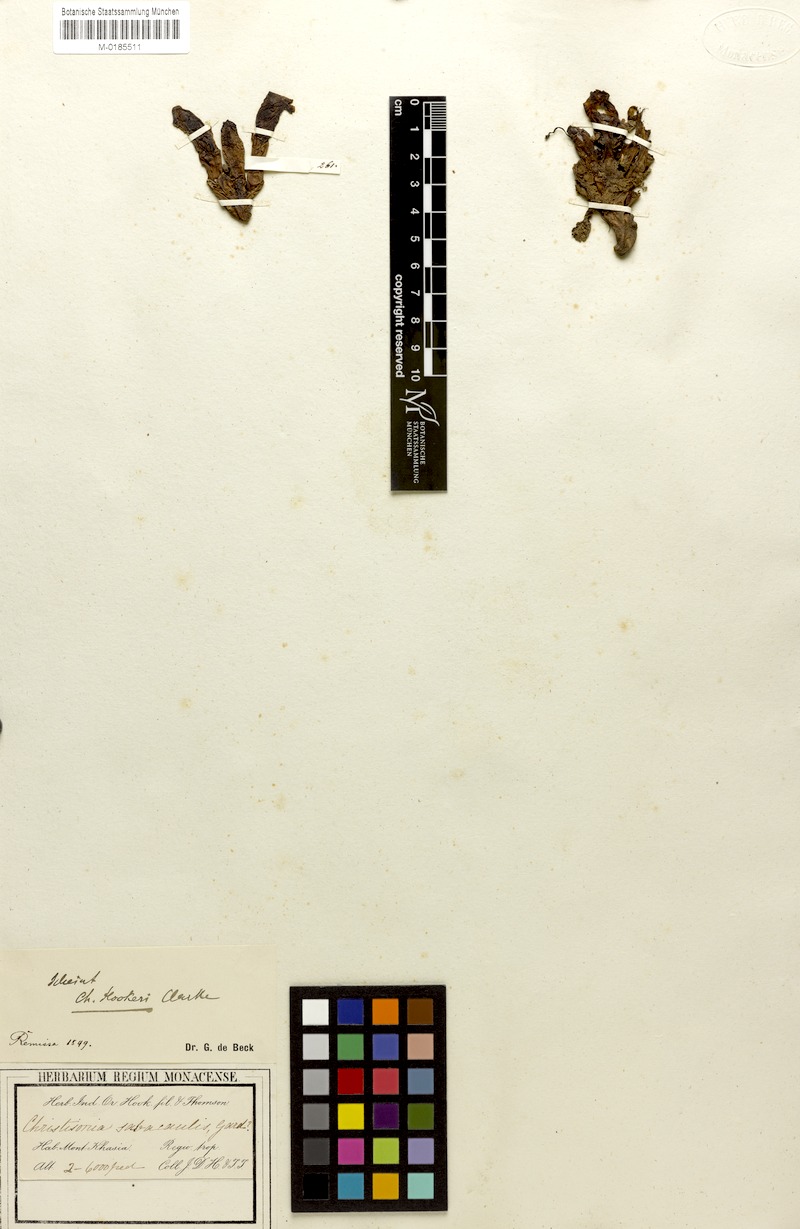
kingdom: Plantae
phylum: Tracheophyta
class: Magnoliopsida
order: Lamiales
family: Orobanchaceae
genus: Christisonia
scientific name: Christisonia hookeri
